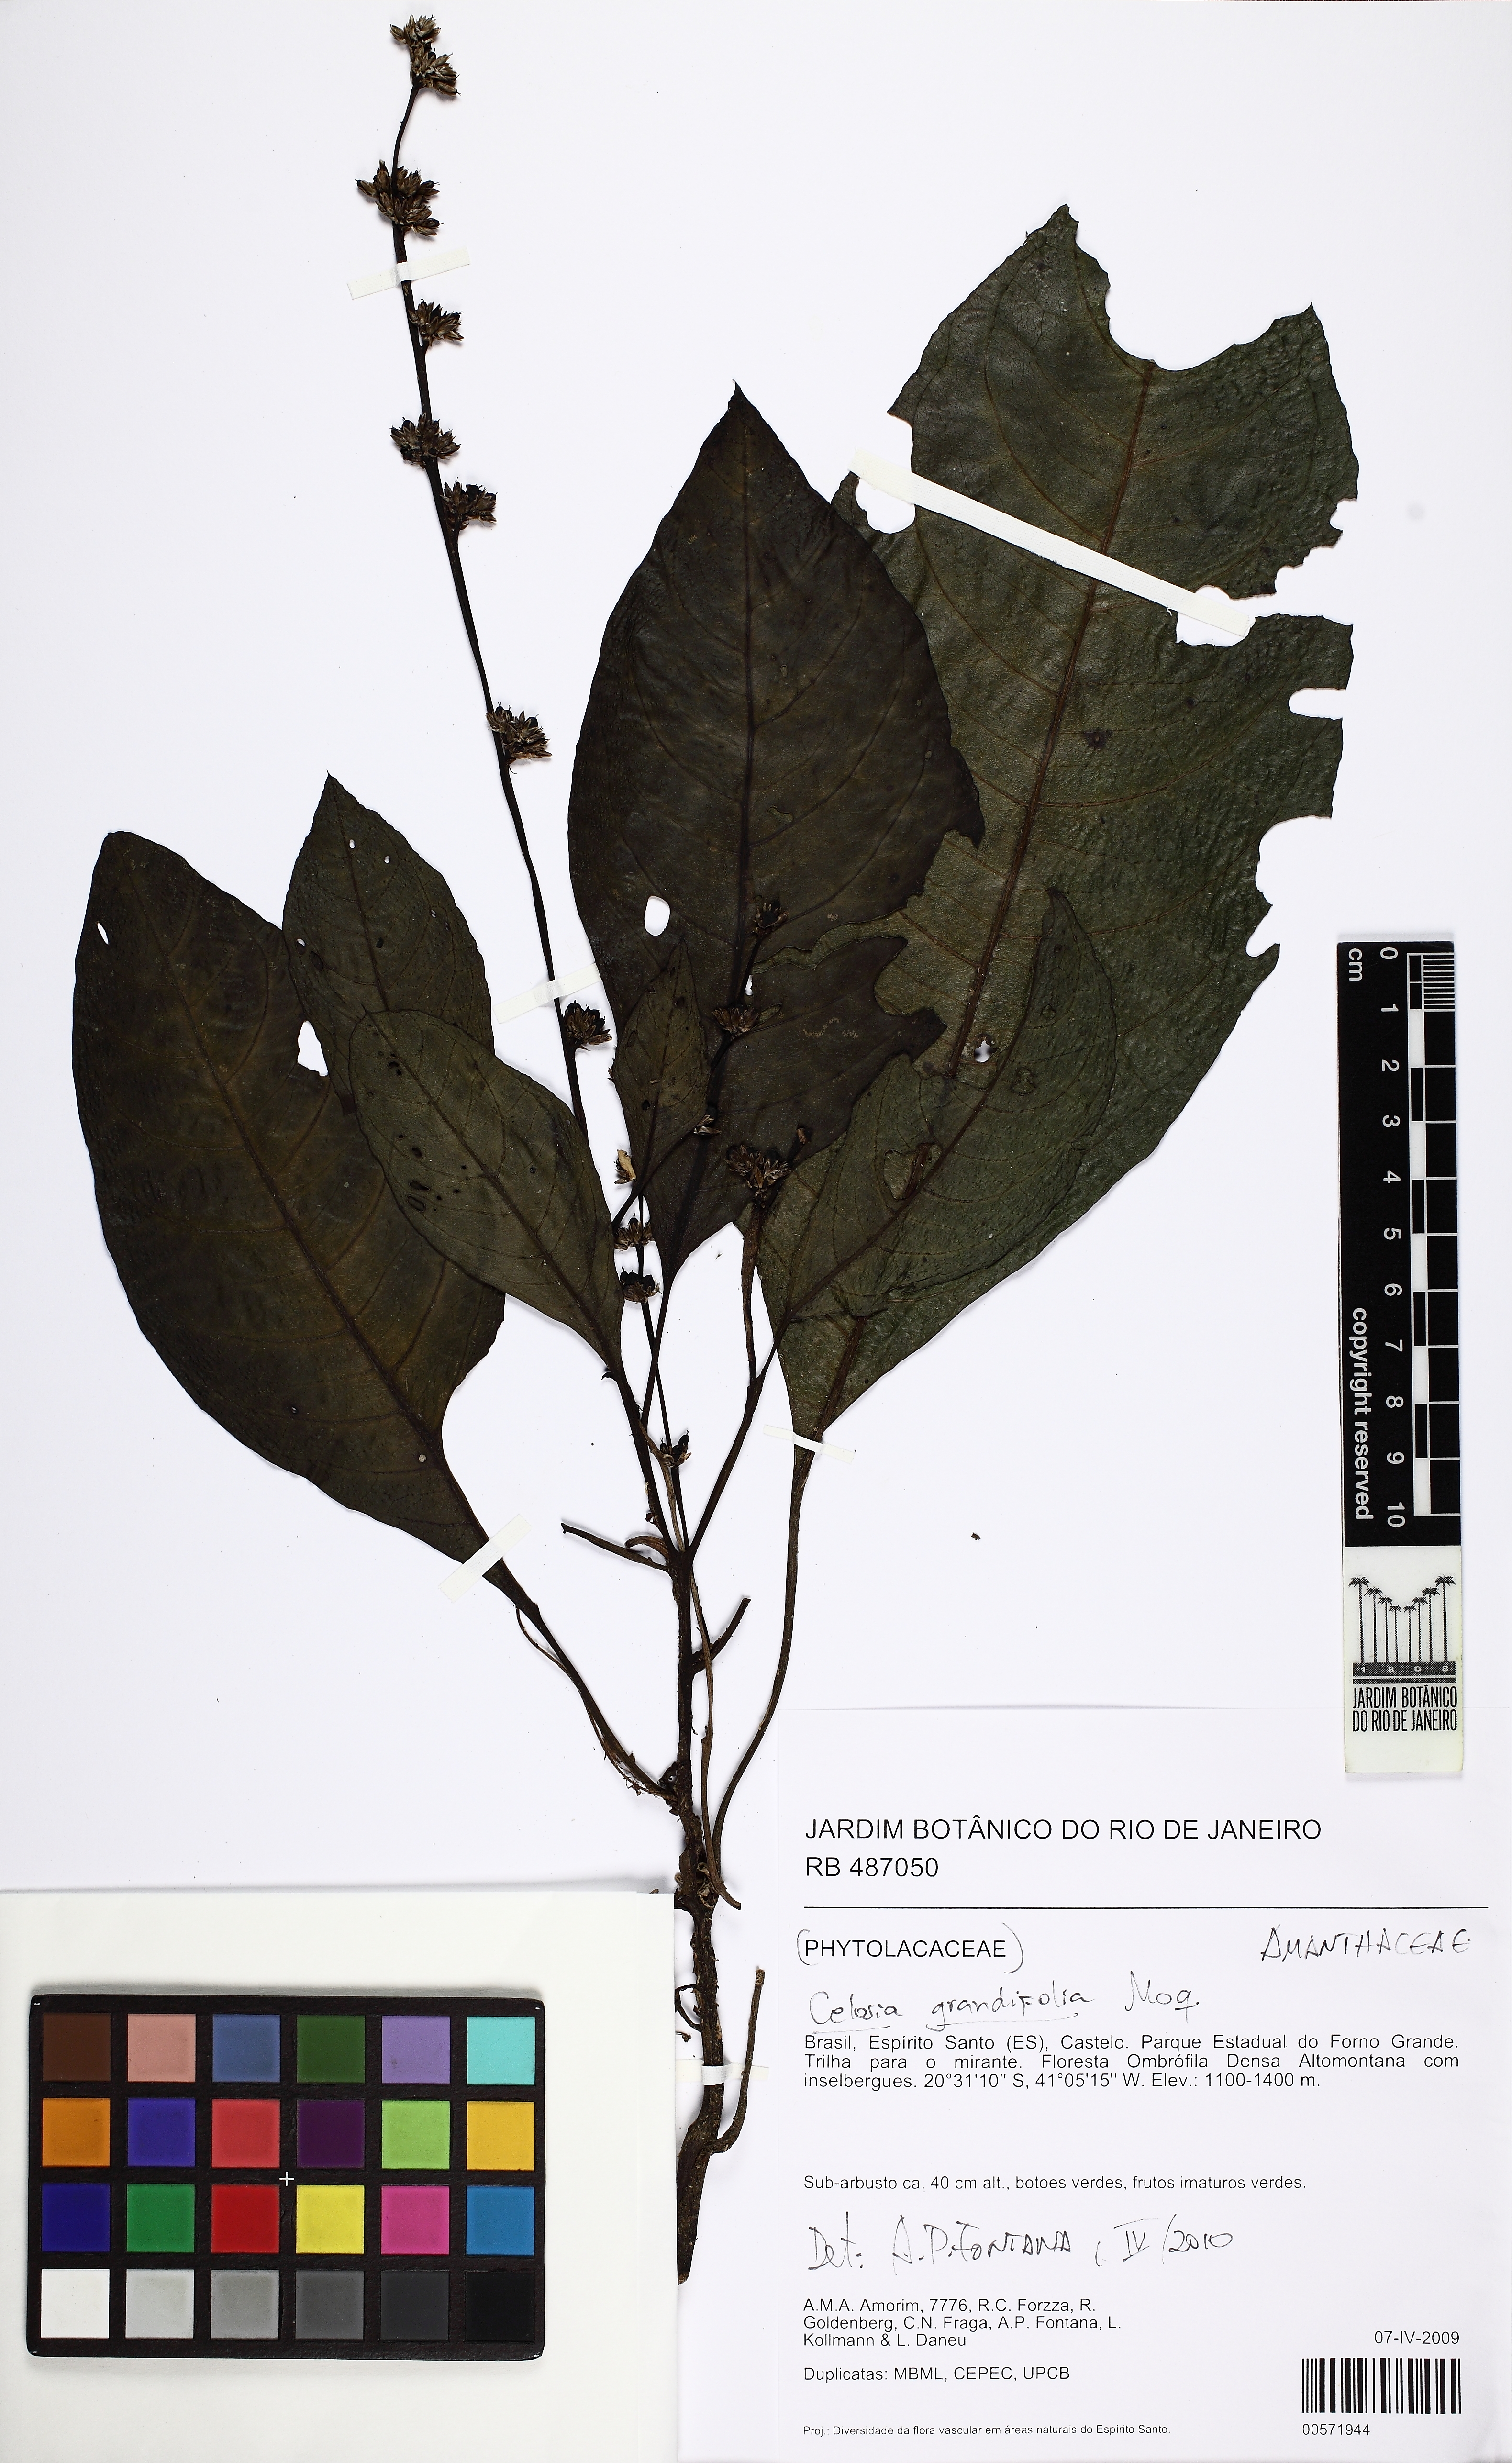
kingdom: Plantae
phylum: Tracheophyta
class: Magnoliopsida
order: Caryophyllales
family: Amaranthaceae
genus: Celosia
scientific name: Celosia grandifolia
